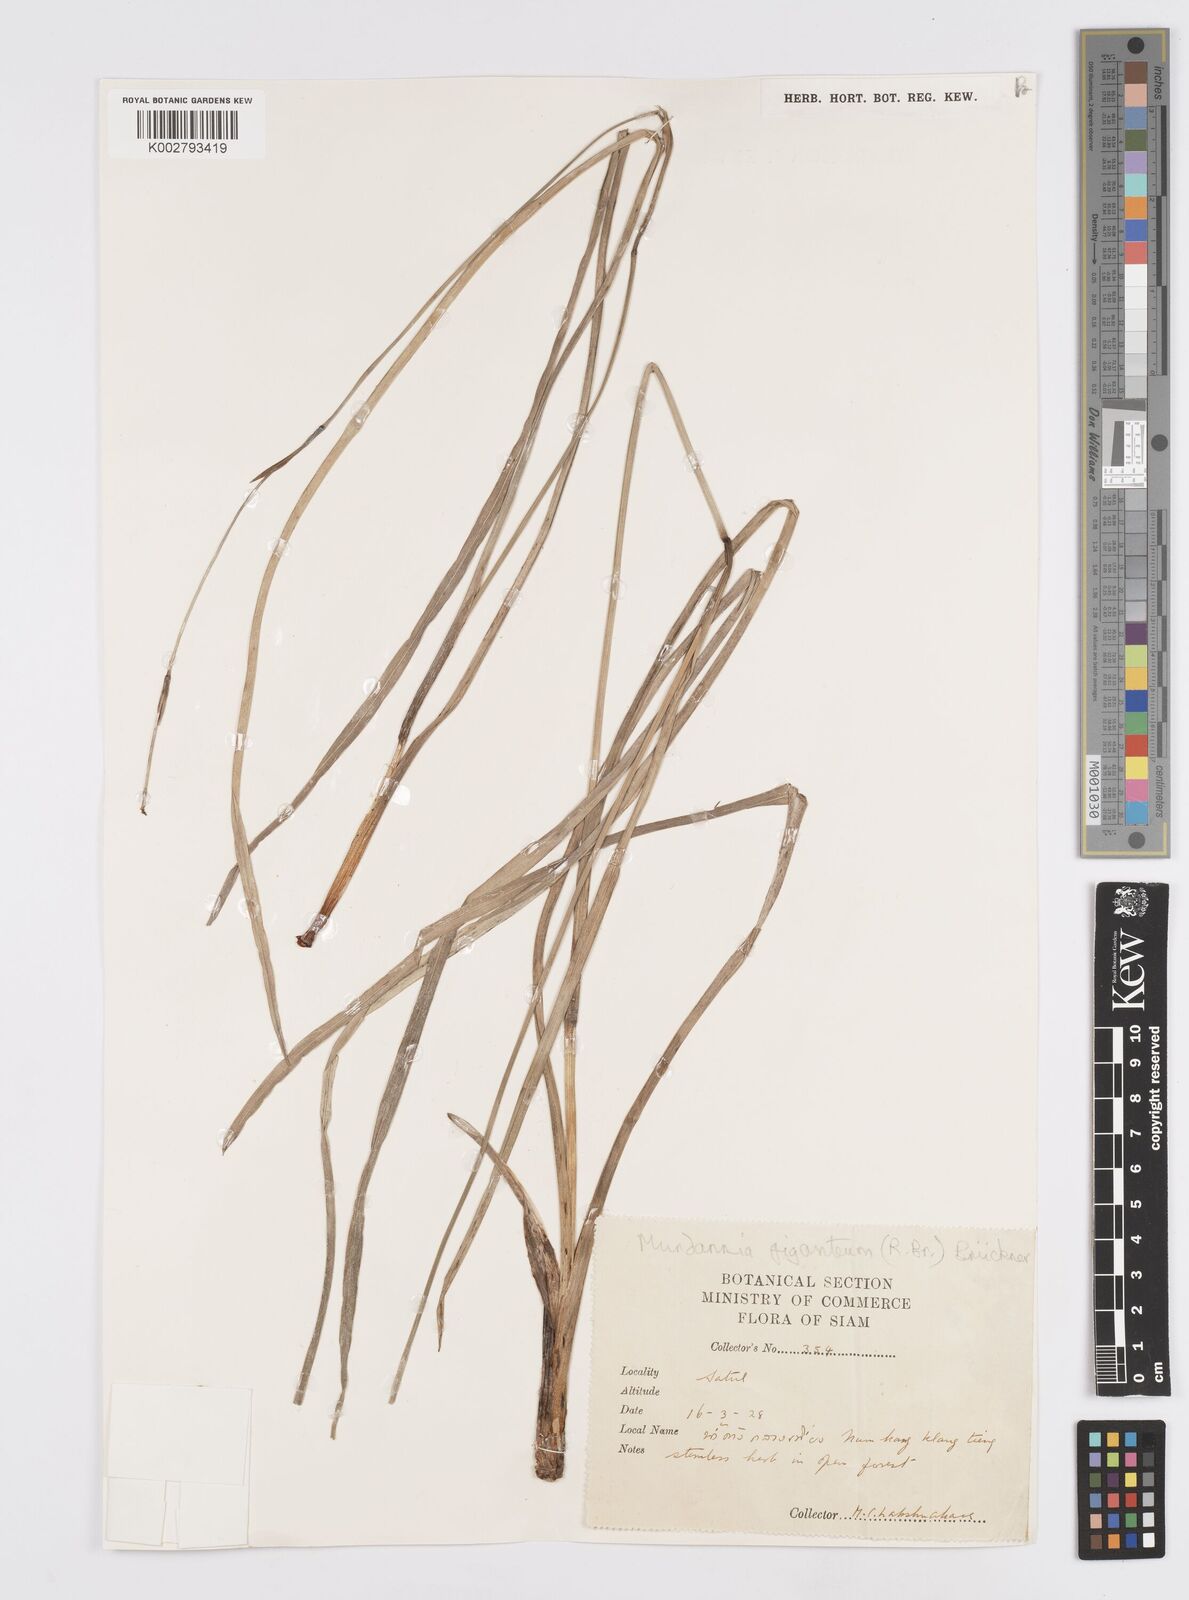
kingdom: Plantae
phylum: Tracheophyta
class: Liliopsida
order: Commelinales
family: Commelinaceae
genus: Murdannia
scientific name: Murdannia gigantea
